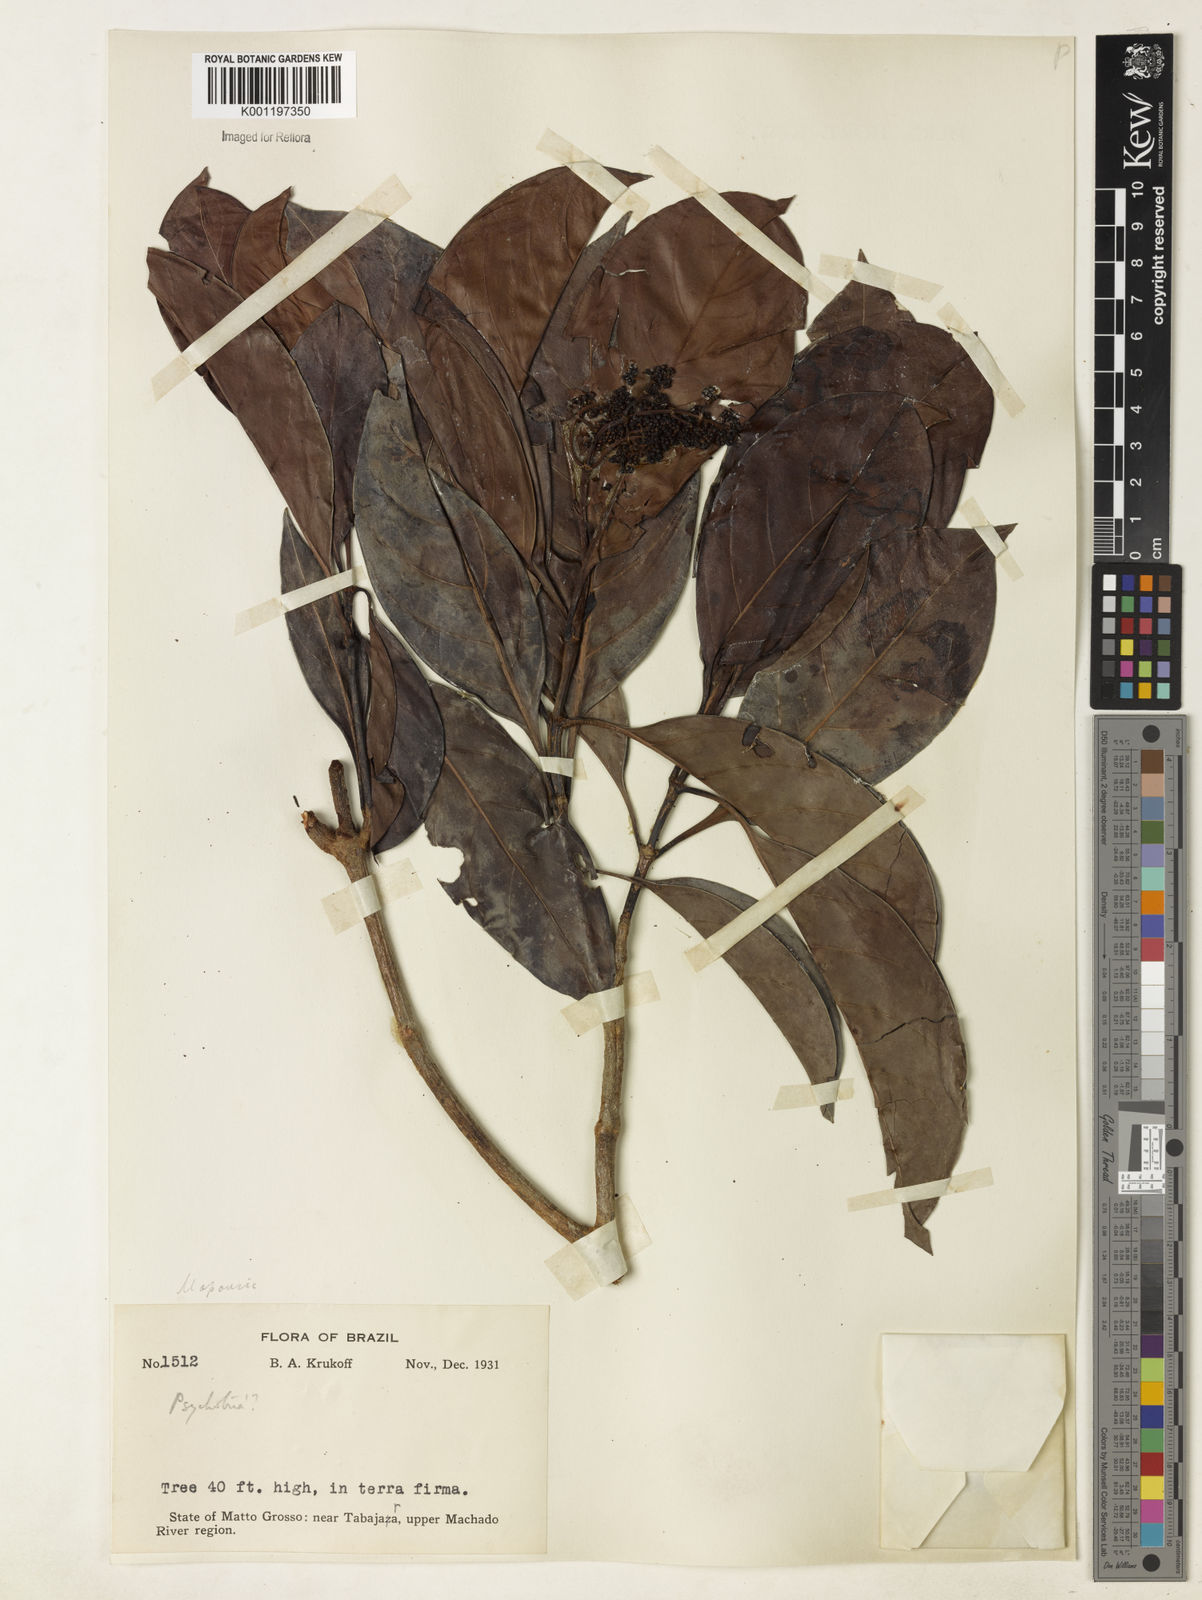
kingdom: Plantae
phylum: Tracheophyta
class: Magnoliopsida
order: Gentianales
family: Rubiaceae
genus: Psychotria
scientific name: Psychotria
